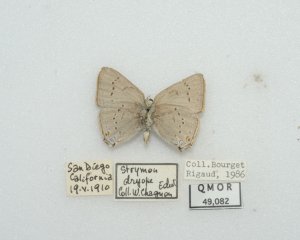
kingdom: Animalia
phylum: Arthropoda
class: Insecta
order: Lepidoptera
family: Lycaenidae
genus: Strymon
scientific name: Strymon sylvinus
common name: Sylvan Hairstreak
